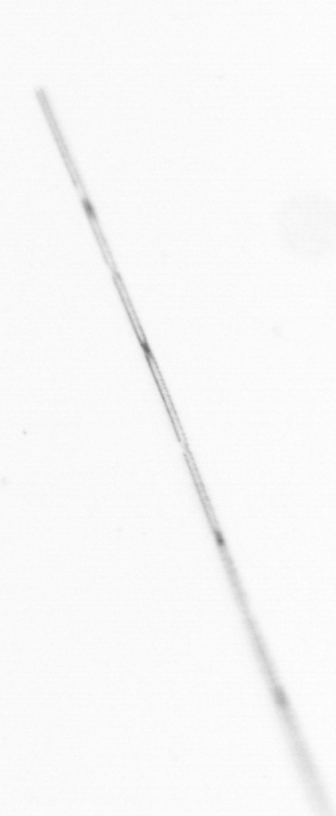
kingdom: Animalia
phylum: Chaetognatha
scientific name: Chaetognatha
